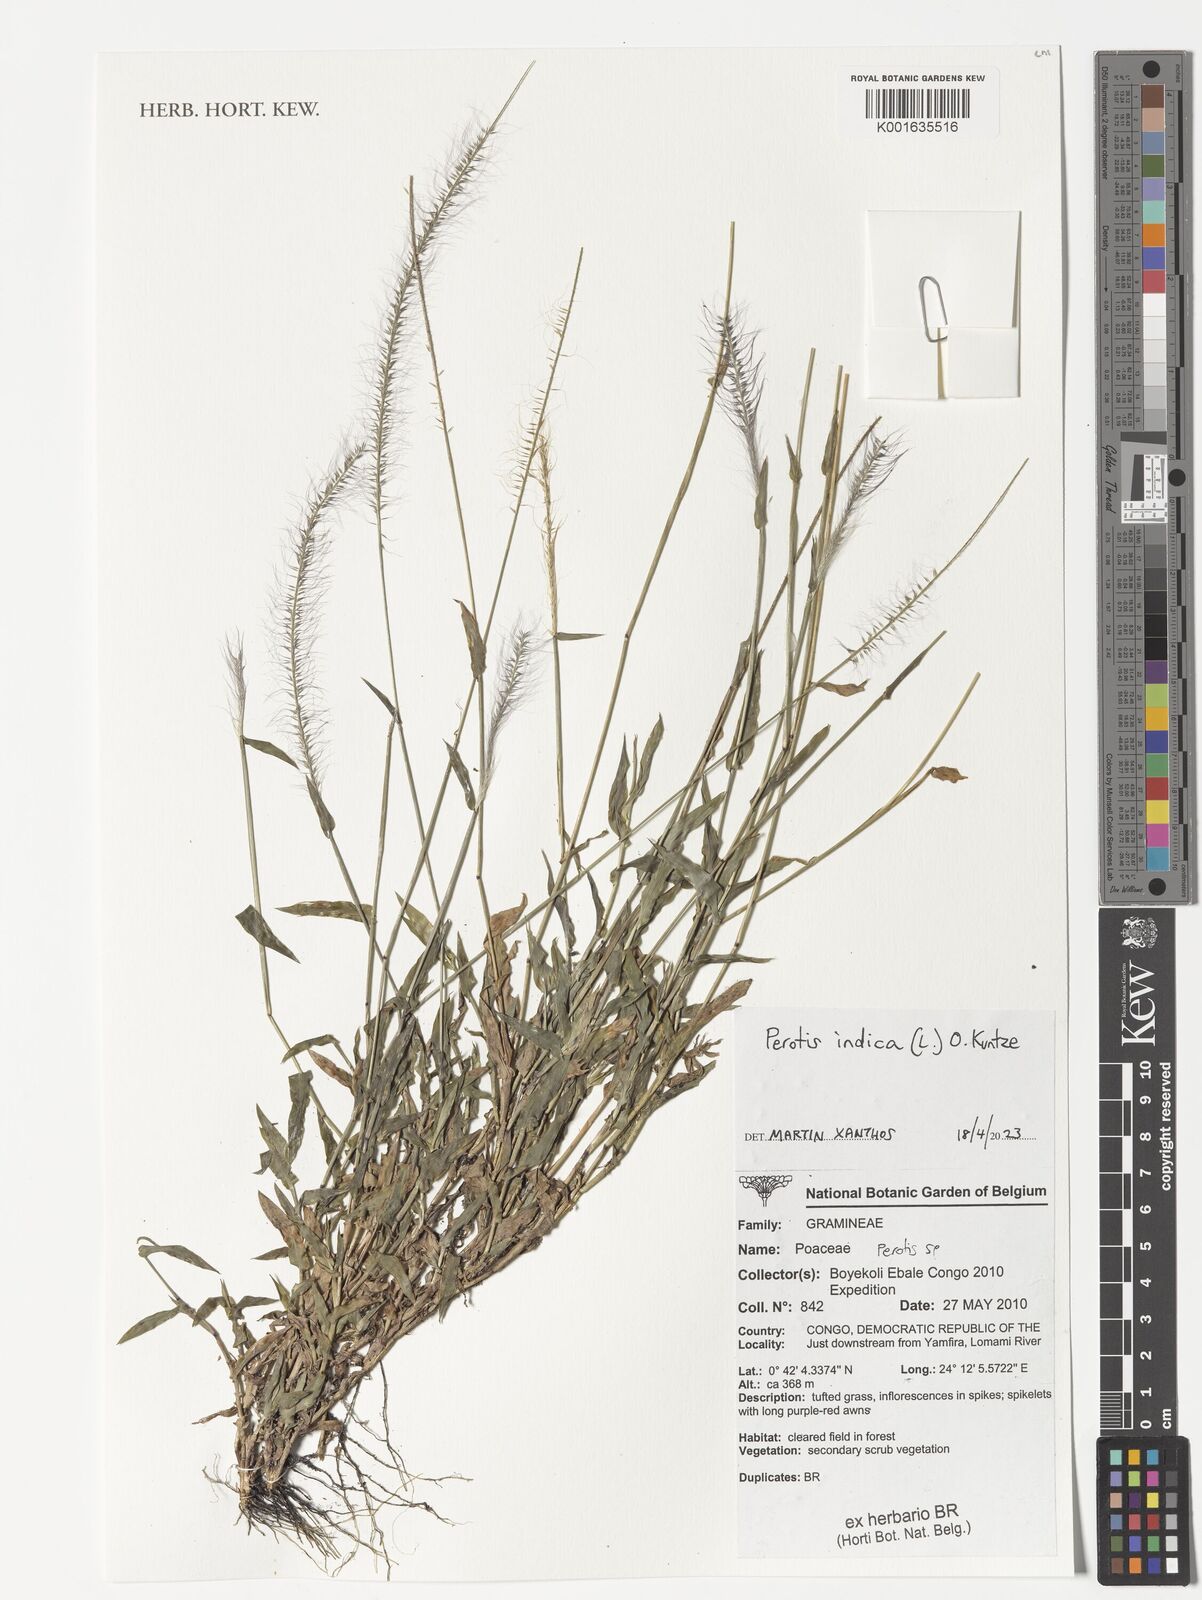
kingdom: Plantae
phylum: Tracheophyta
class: Liliopsida
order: Poales
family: Poaceae
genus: Perotis
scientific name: Perotis indica
